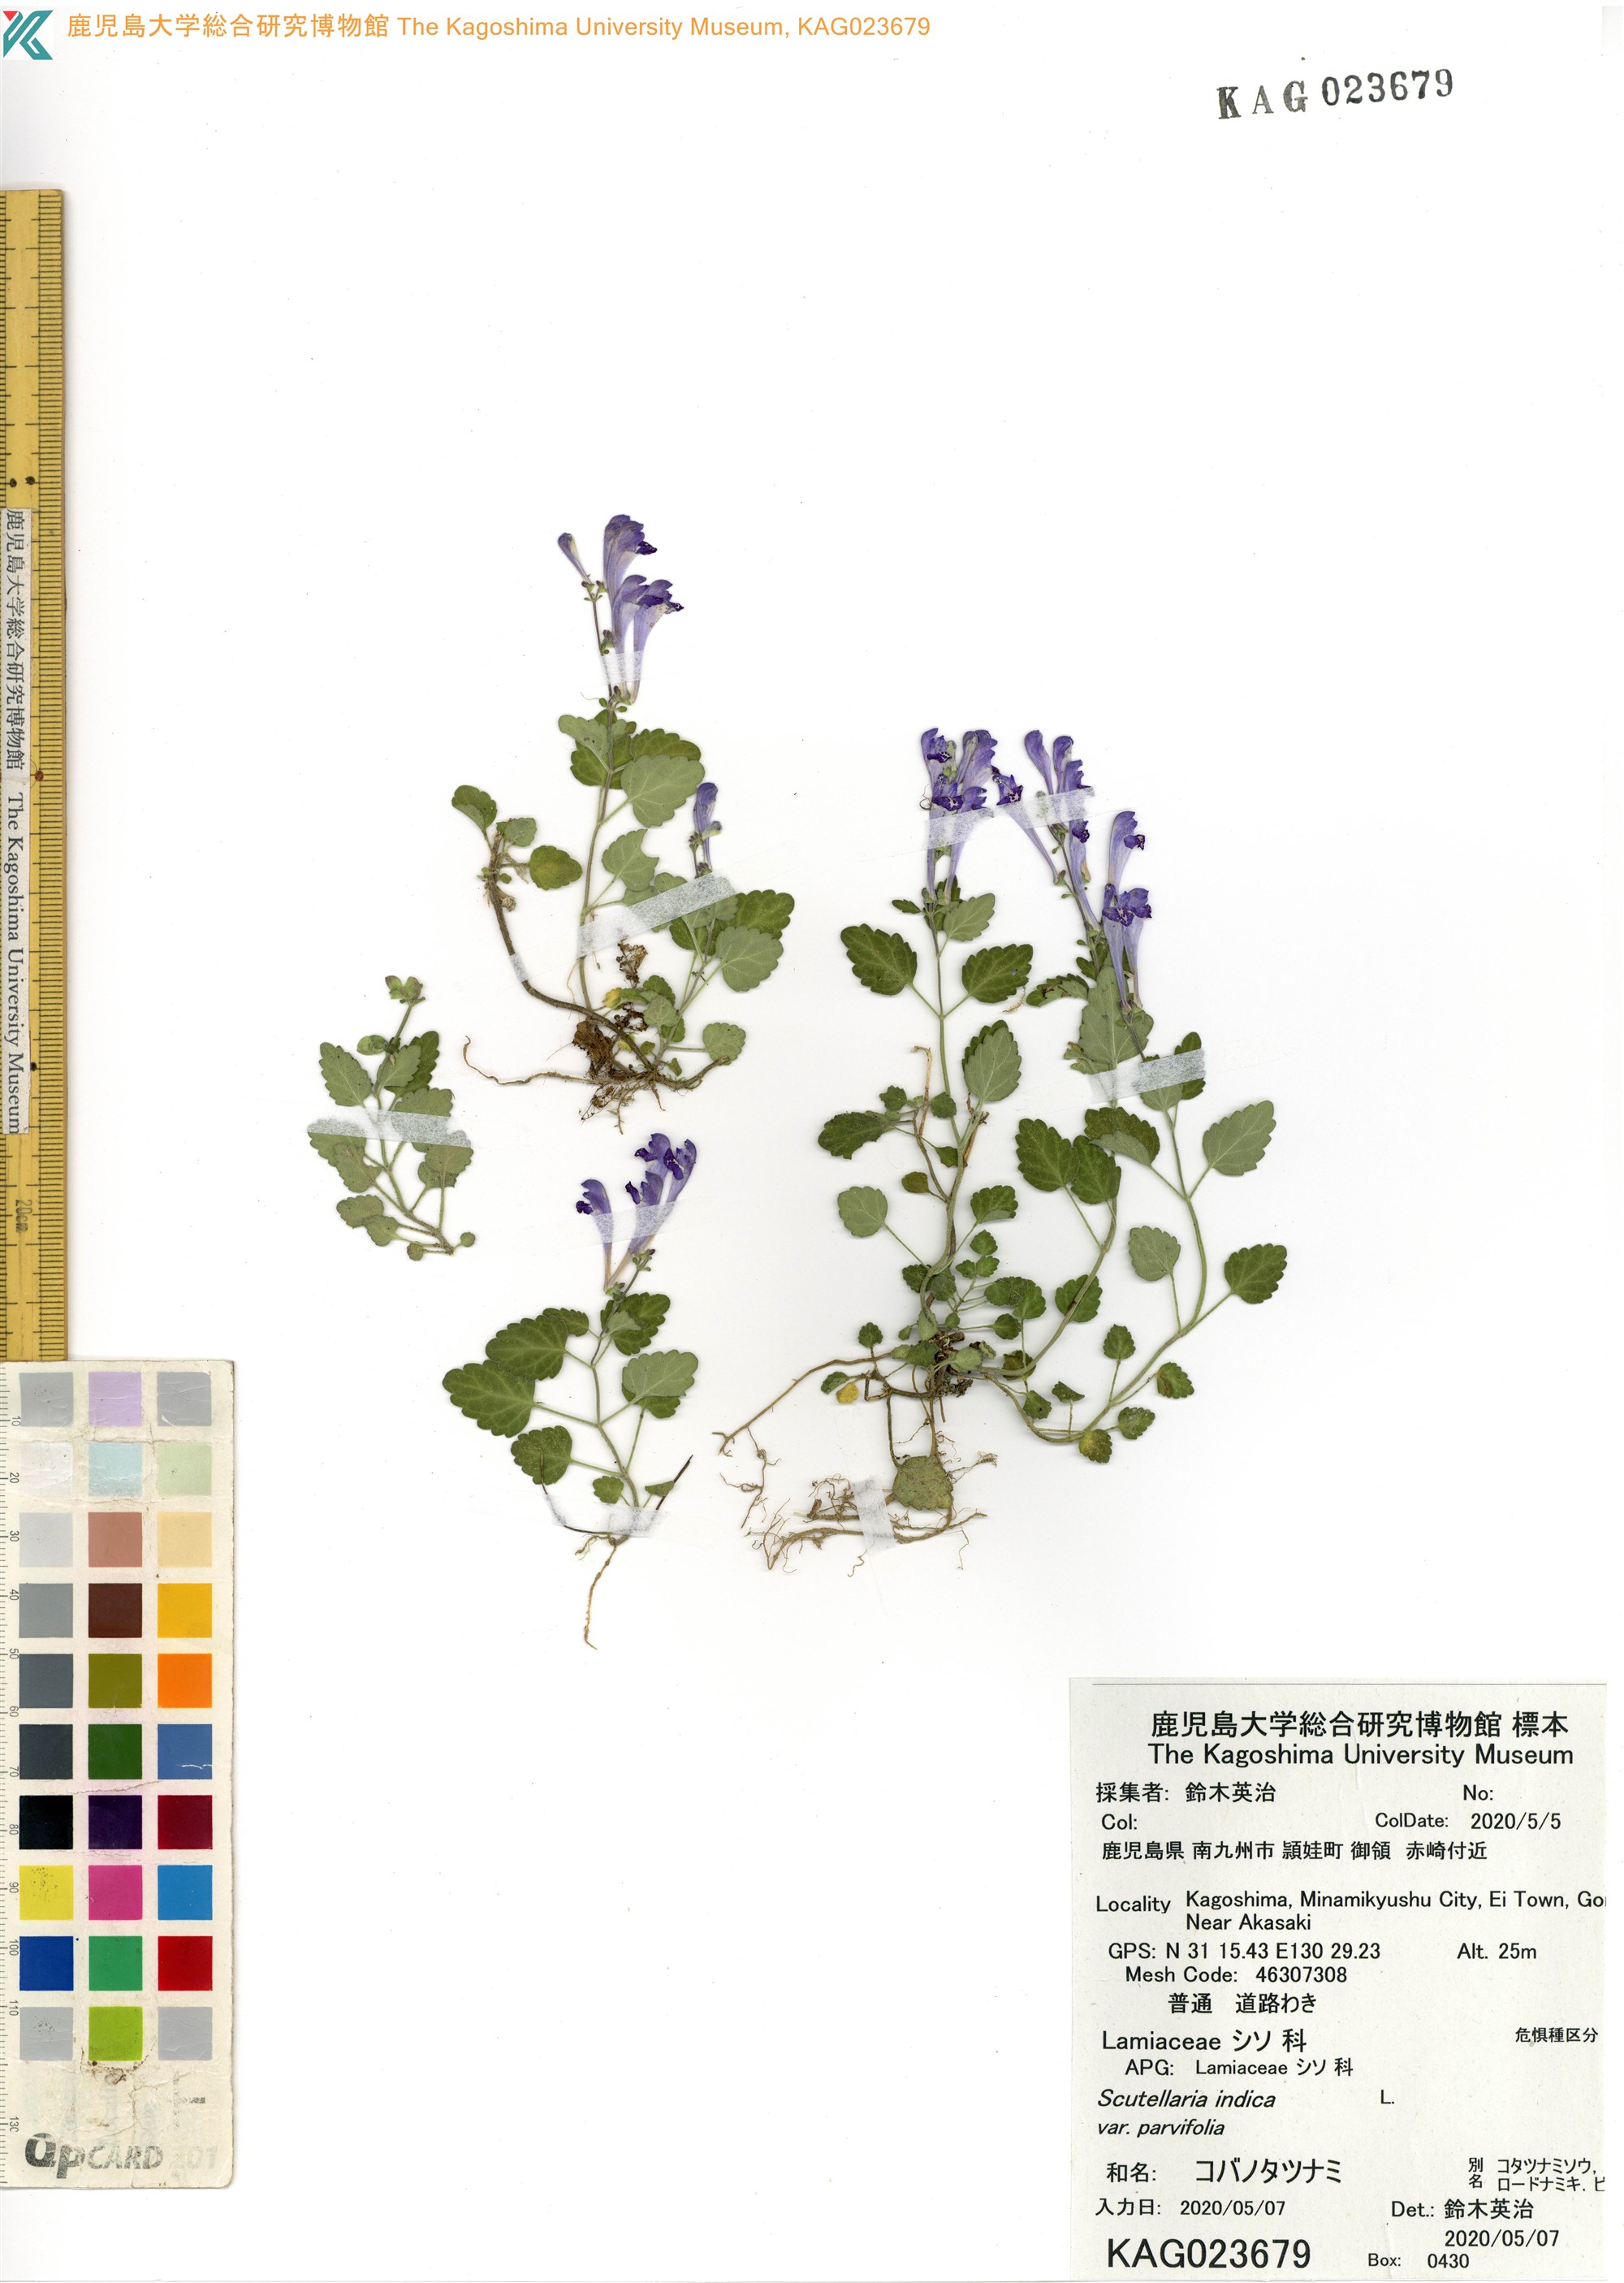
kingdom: Plantae
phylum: Tracheophyta
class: Magnoliopsida
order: Lamiales
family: Lamiaceae
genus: Scutellaria
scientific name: Scutellaria indica
